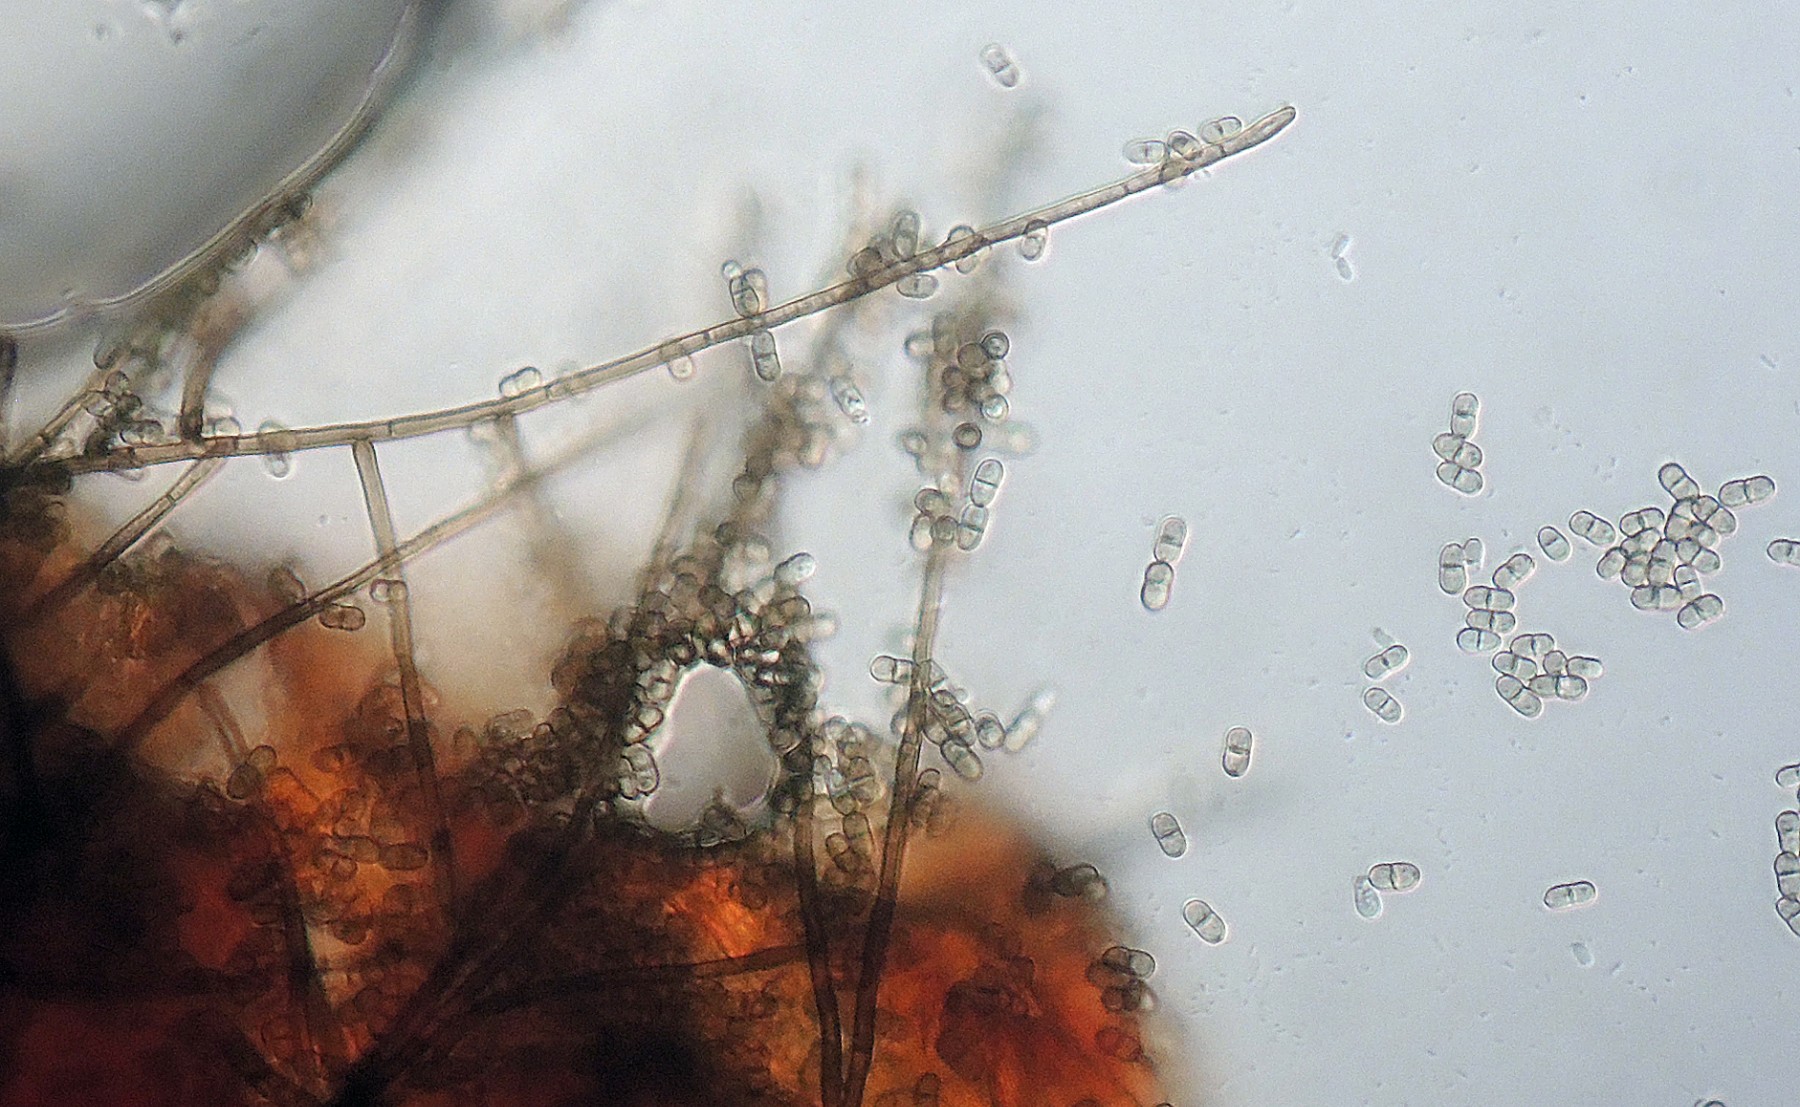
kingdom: Fungi
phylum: Ascomycota
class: Leotiomycetes
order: Helotiales
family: Mollisiaceae
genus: Diplococcium
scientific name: Diplococcium spicatum
